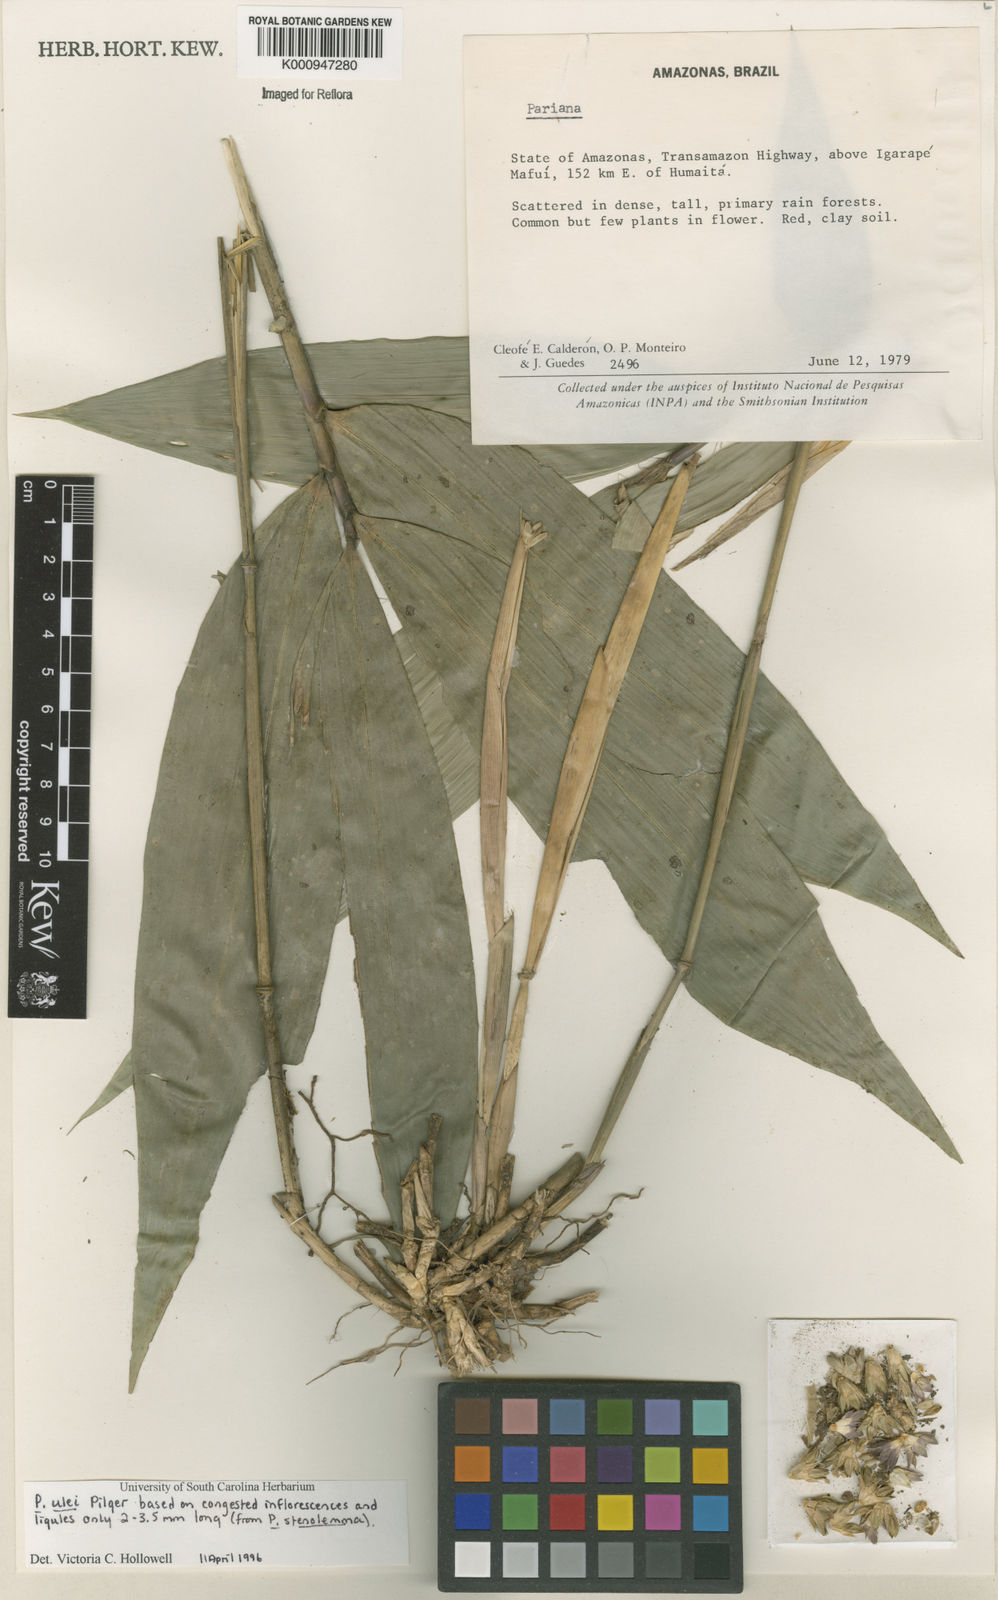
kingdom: Plantae
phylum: Tracheophyta
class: Liliopsida
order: Poales
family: Poaceae
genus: Pariana
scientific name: Pariana ulei
